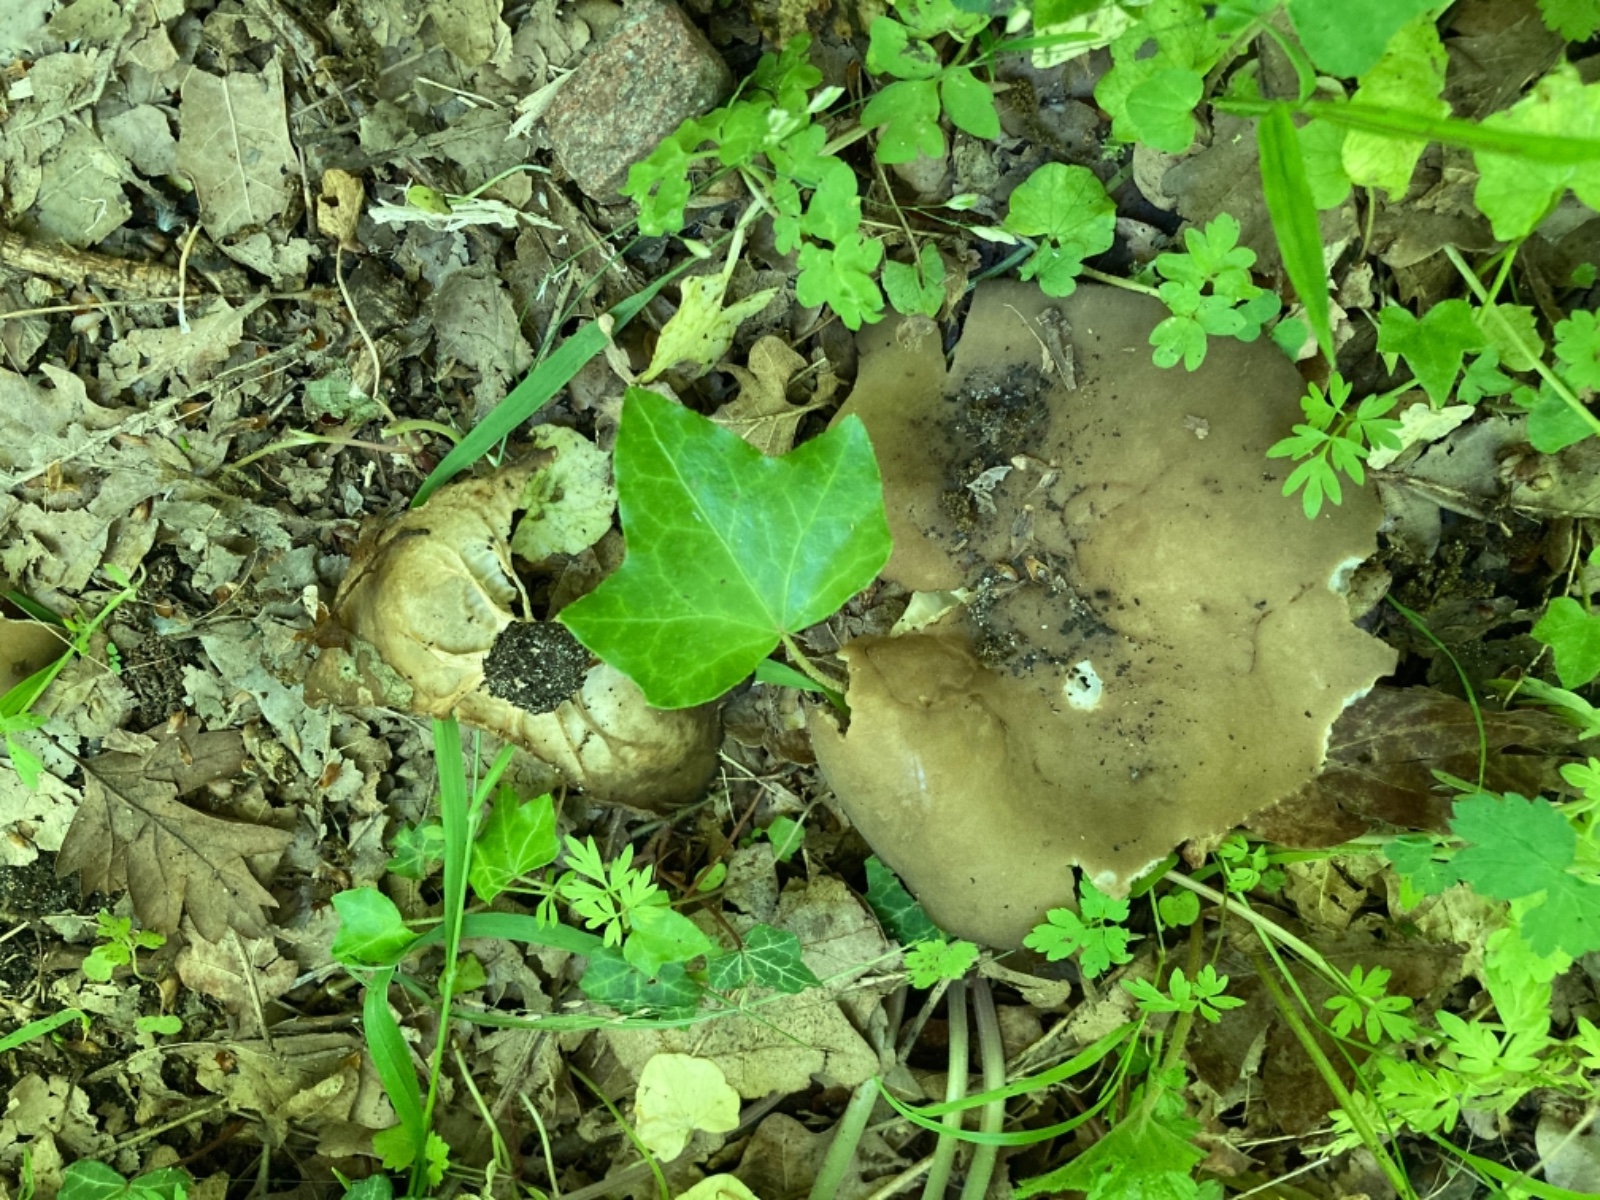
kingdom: Fungi
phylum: Ascomycota
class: Pezizomycetes
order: Pezizales
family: Helvellaceae
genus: Helvella
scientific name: Helvella acetabulum
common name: pokal-foldhat
